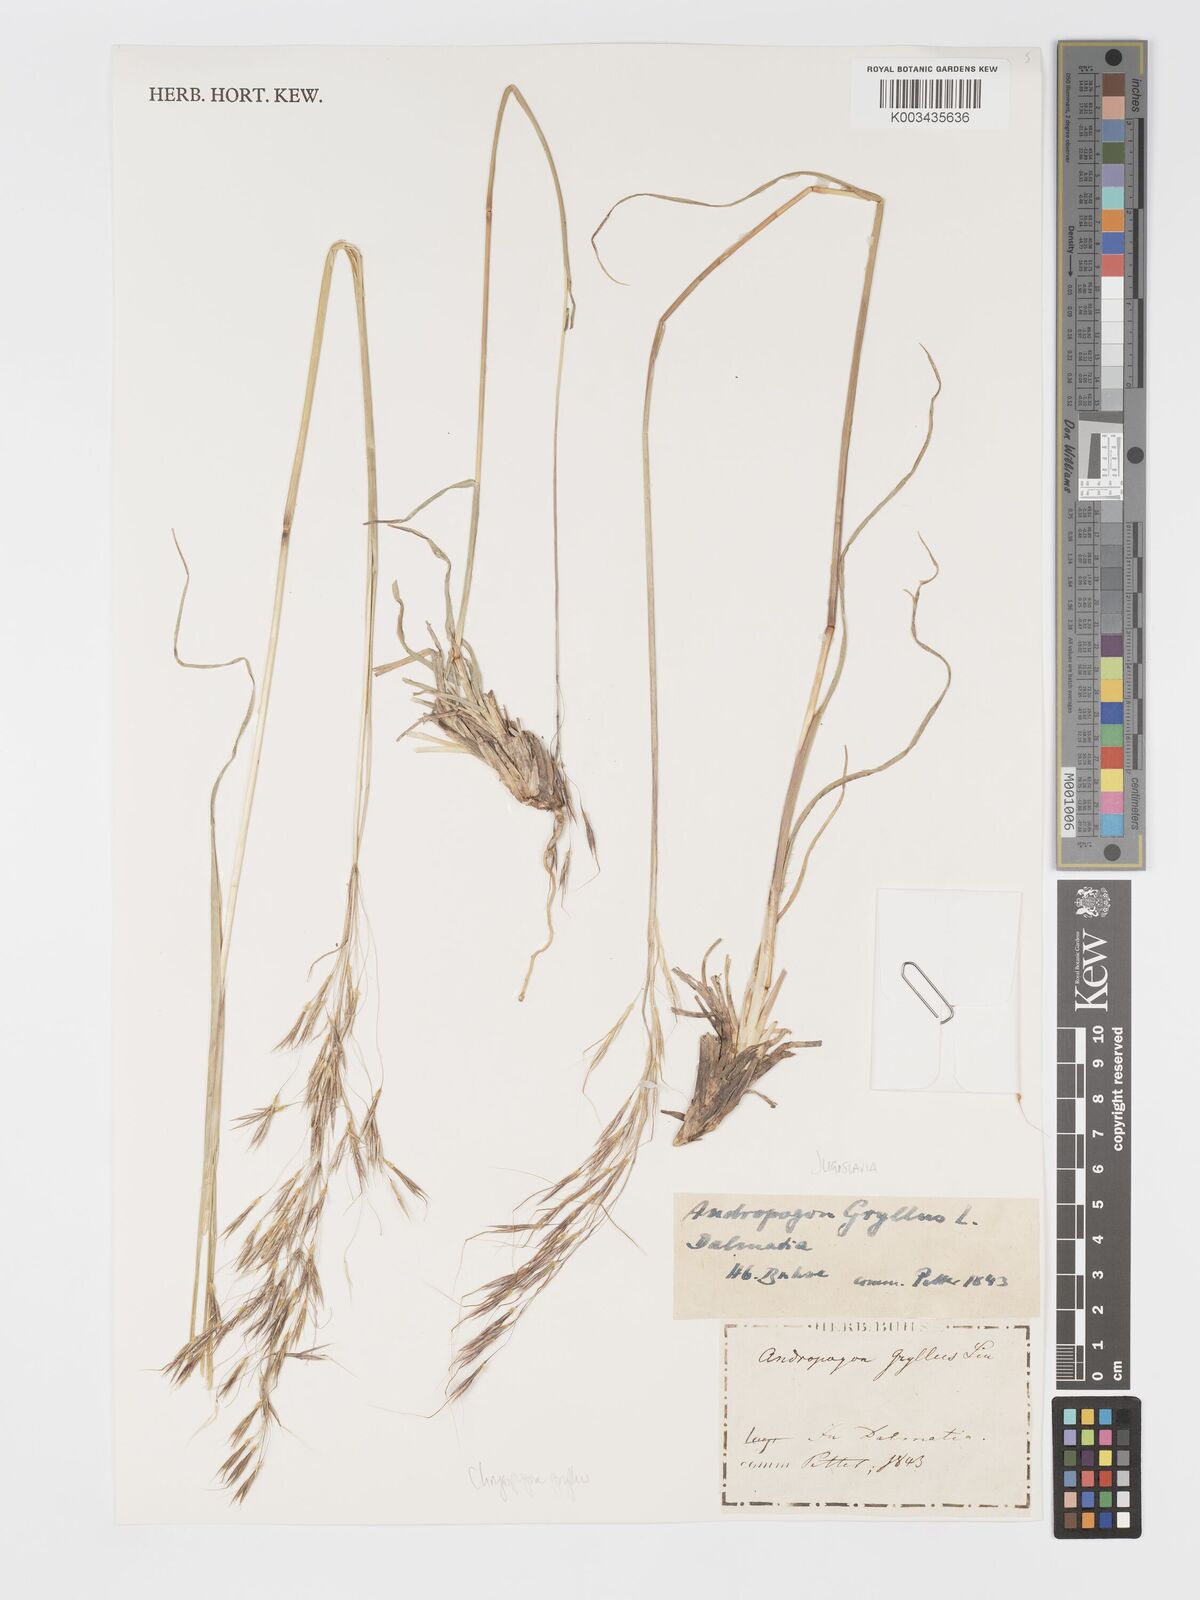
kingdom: Plantae
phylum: Tracheophyta
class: Liliopsida
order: Poales
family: Poaceae
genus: Chrysopogon
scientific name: Chrysopogon gryllus
